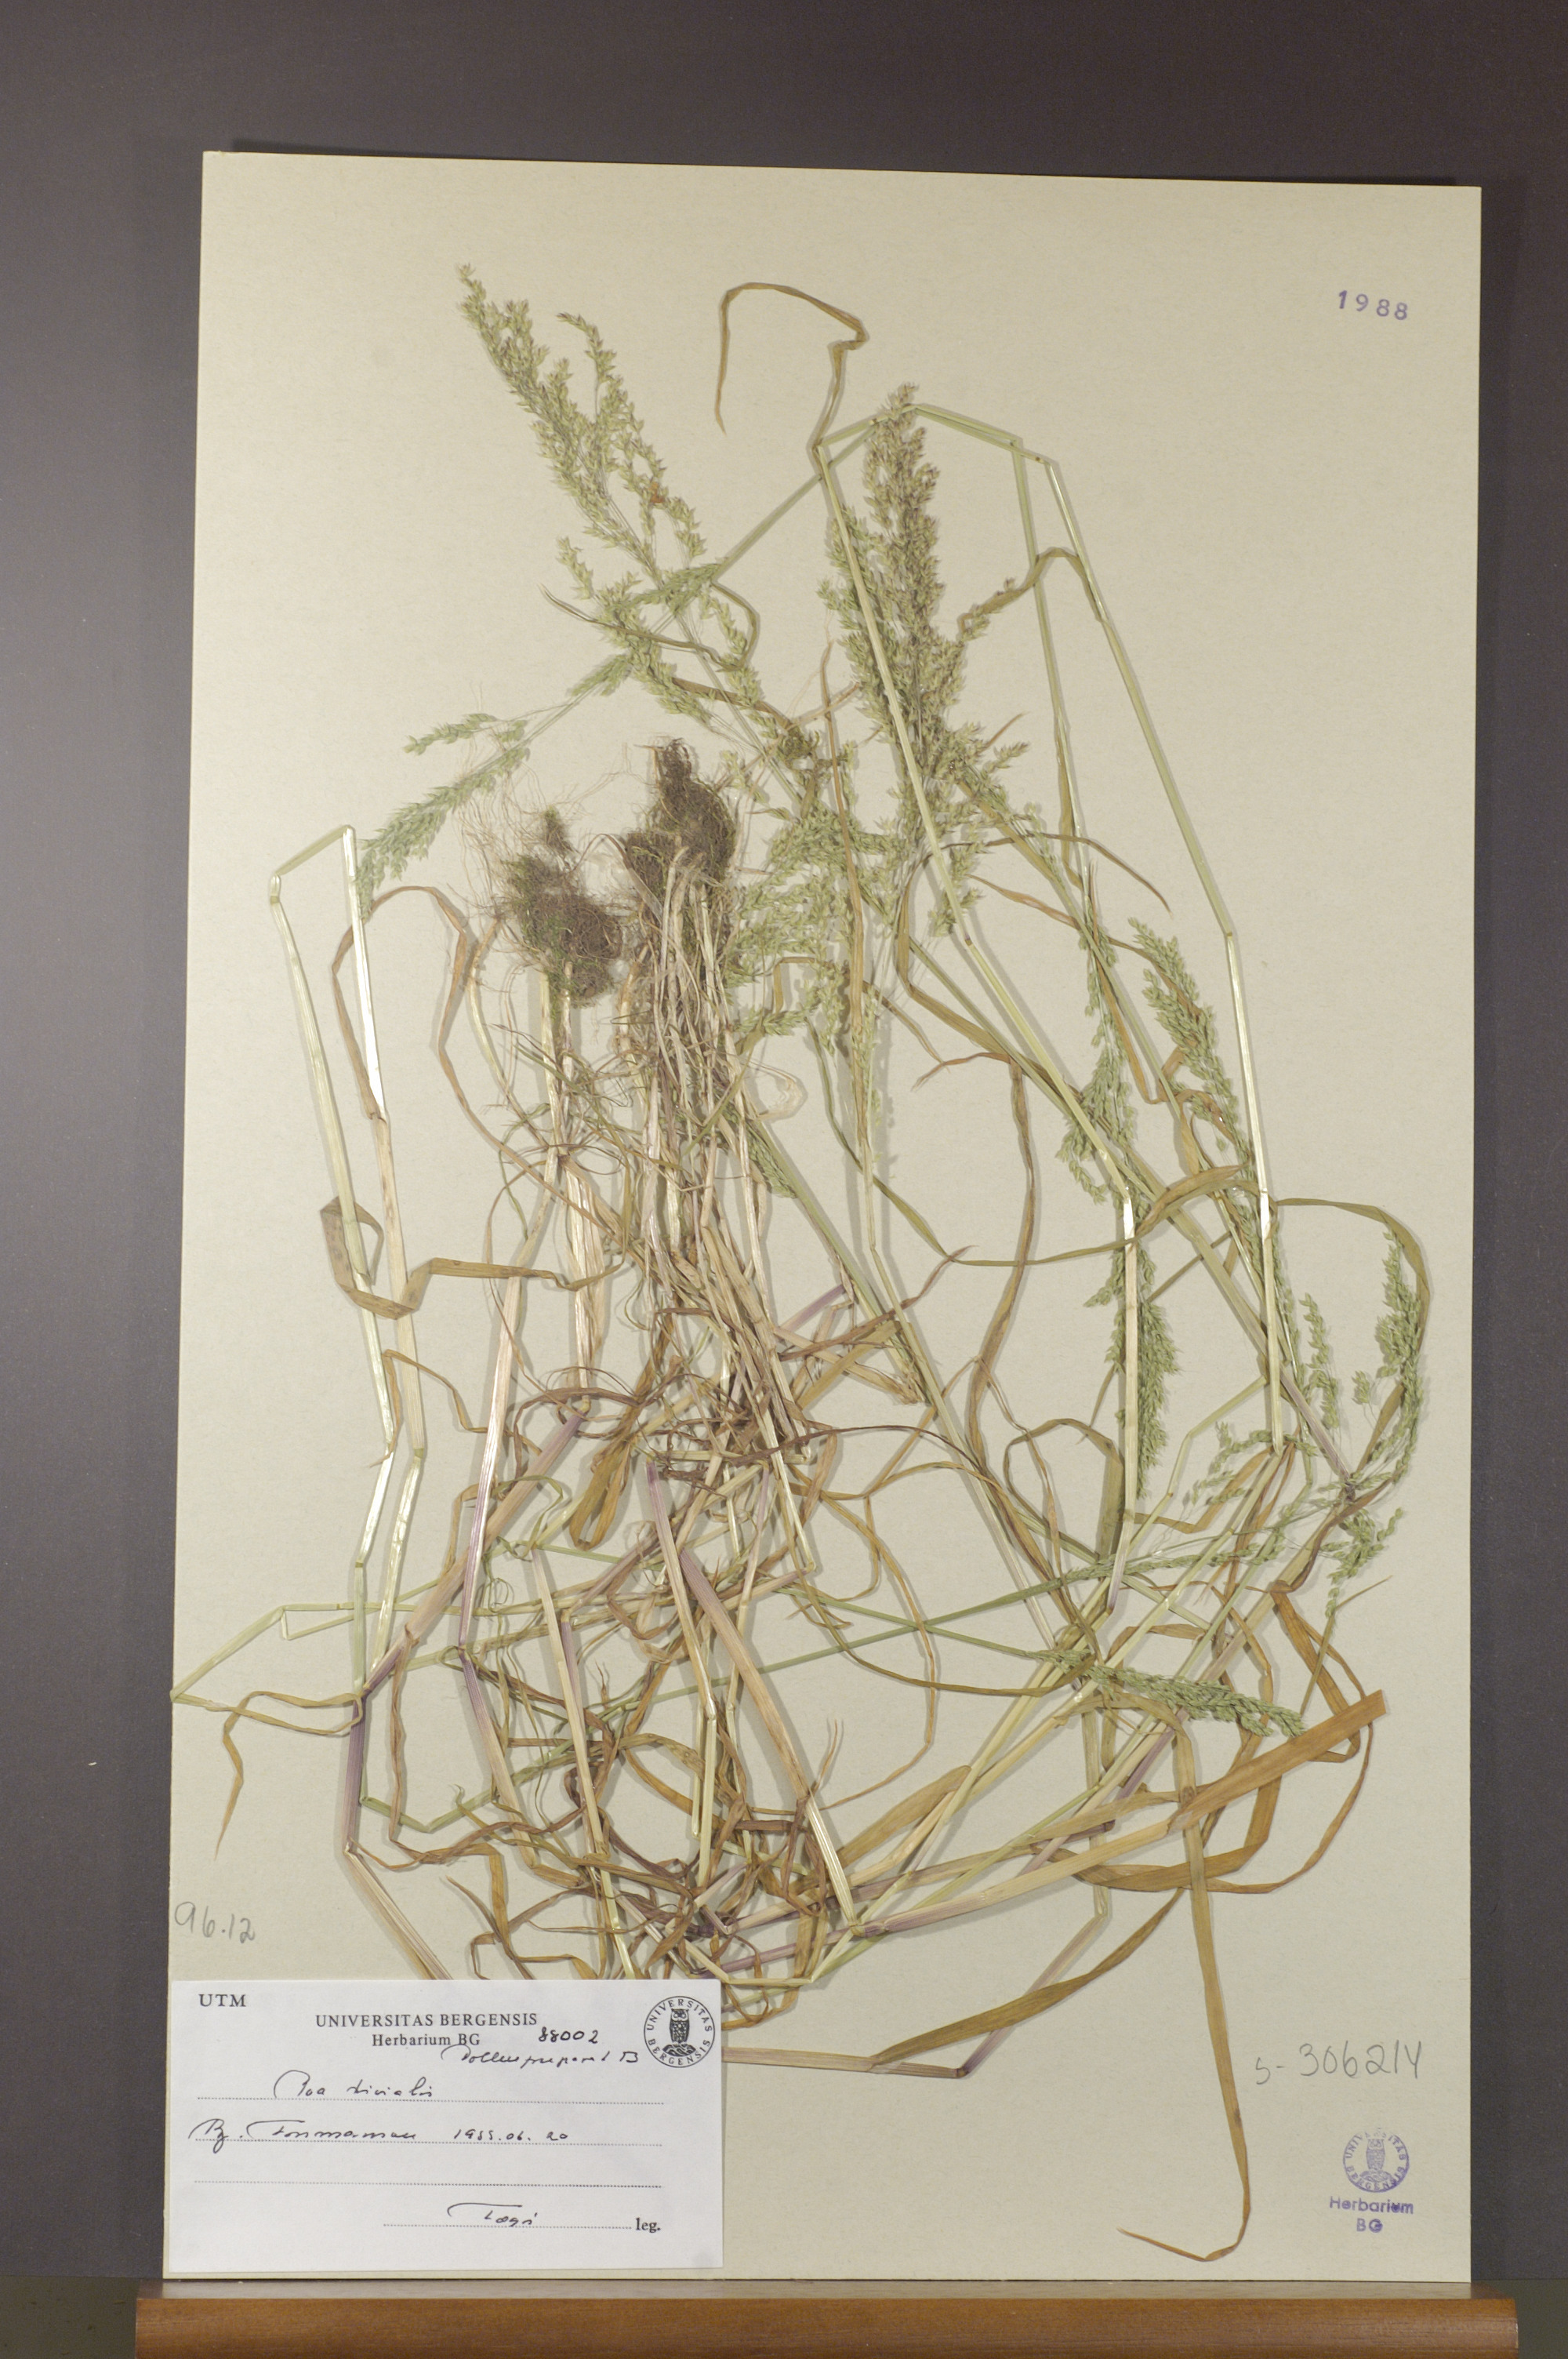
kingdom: Plantae
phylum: Tracheophyta
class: Liliopsida
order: Poales
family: Poaceae
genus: Poa
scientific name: Poa trivialis
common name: Rough bluegrass
